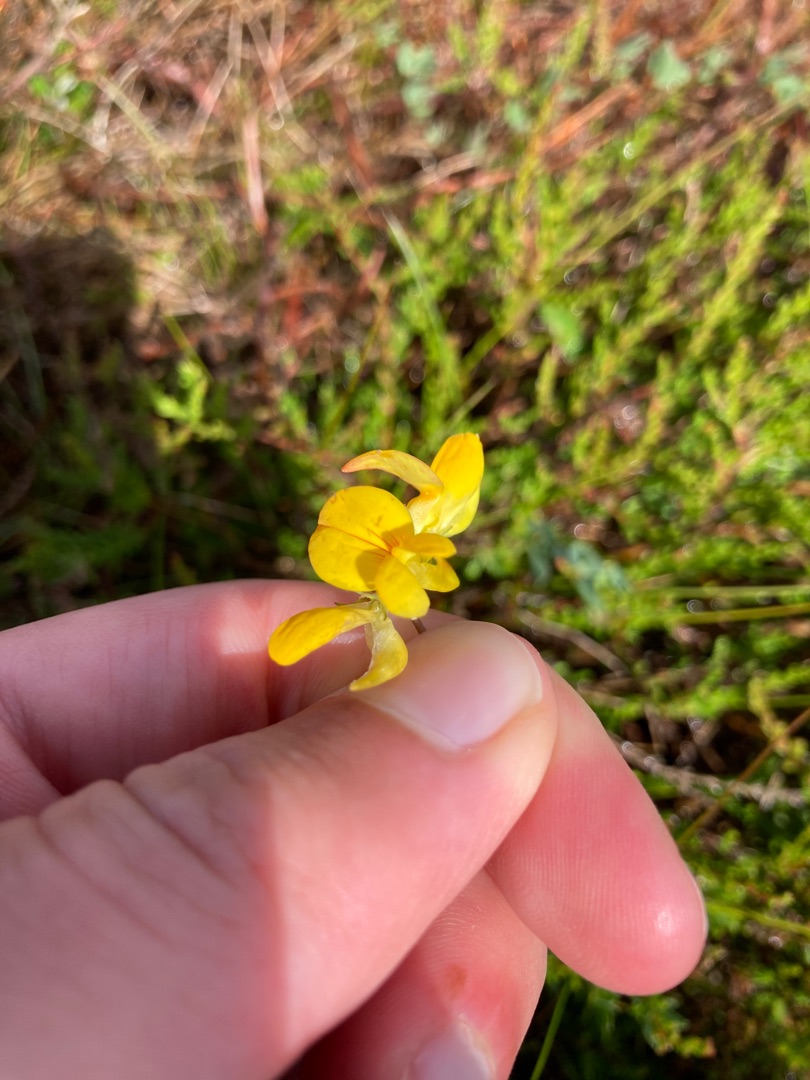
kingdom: Plantae
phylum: Tracheophyta
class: Magnoliopsida
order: Fabales
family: Fabaceae
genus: Lotus
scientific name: Lotus corniculatus
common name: Almindelig kællingetand
